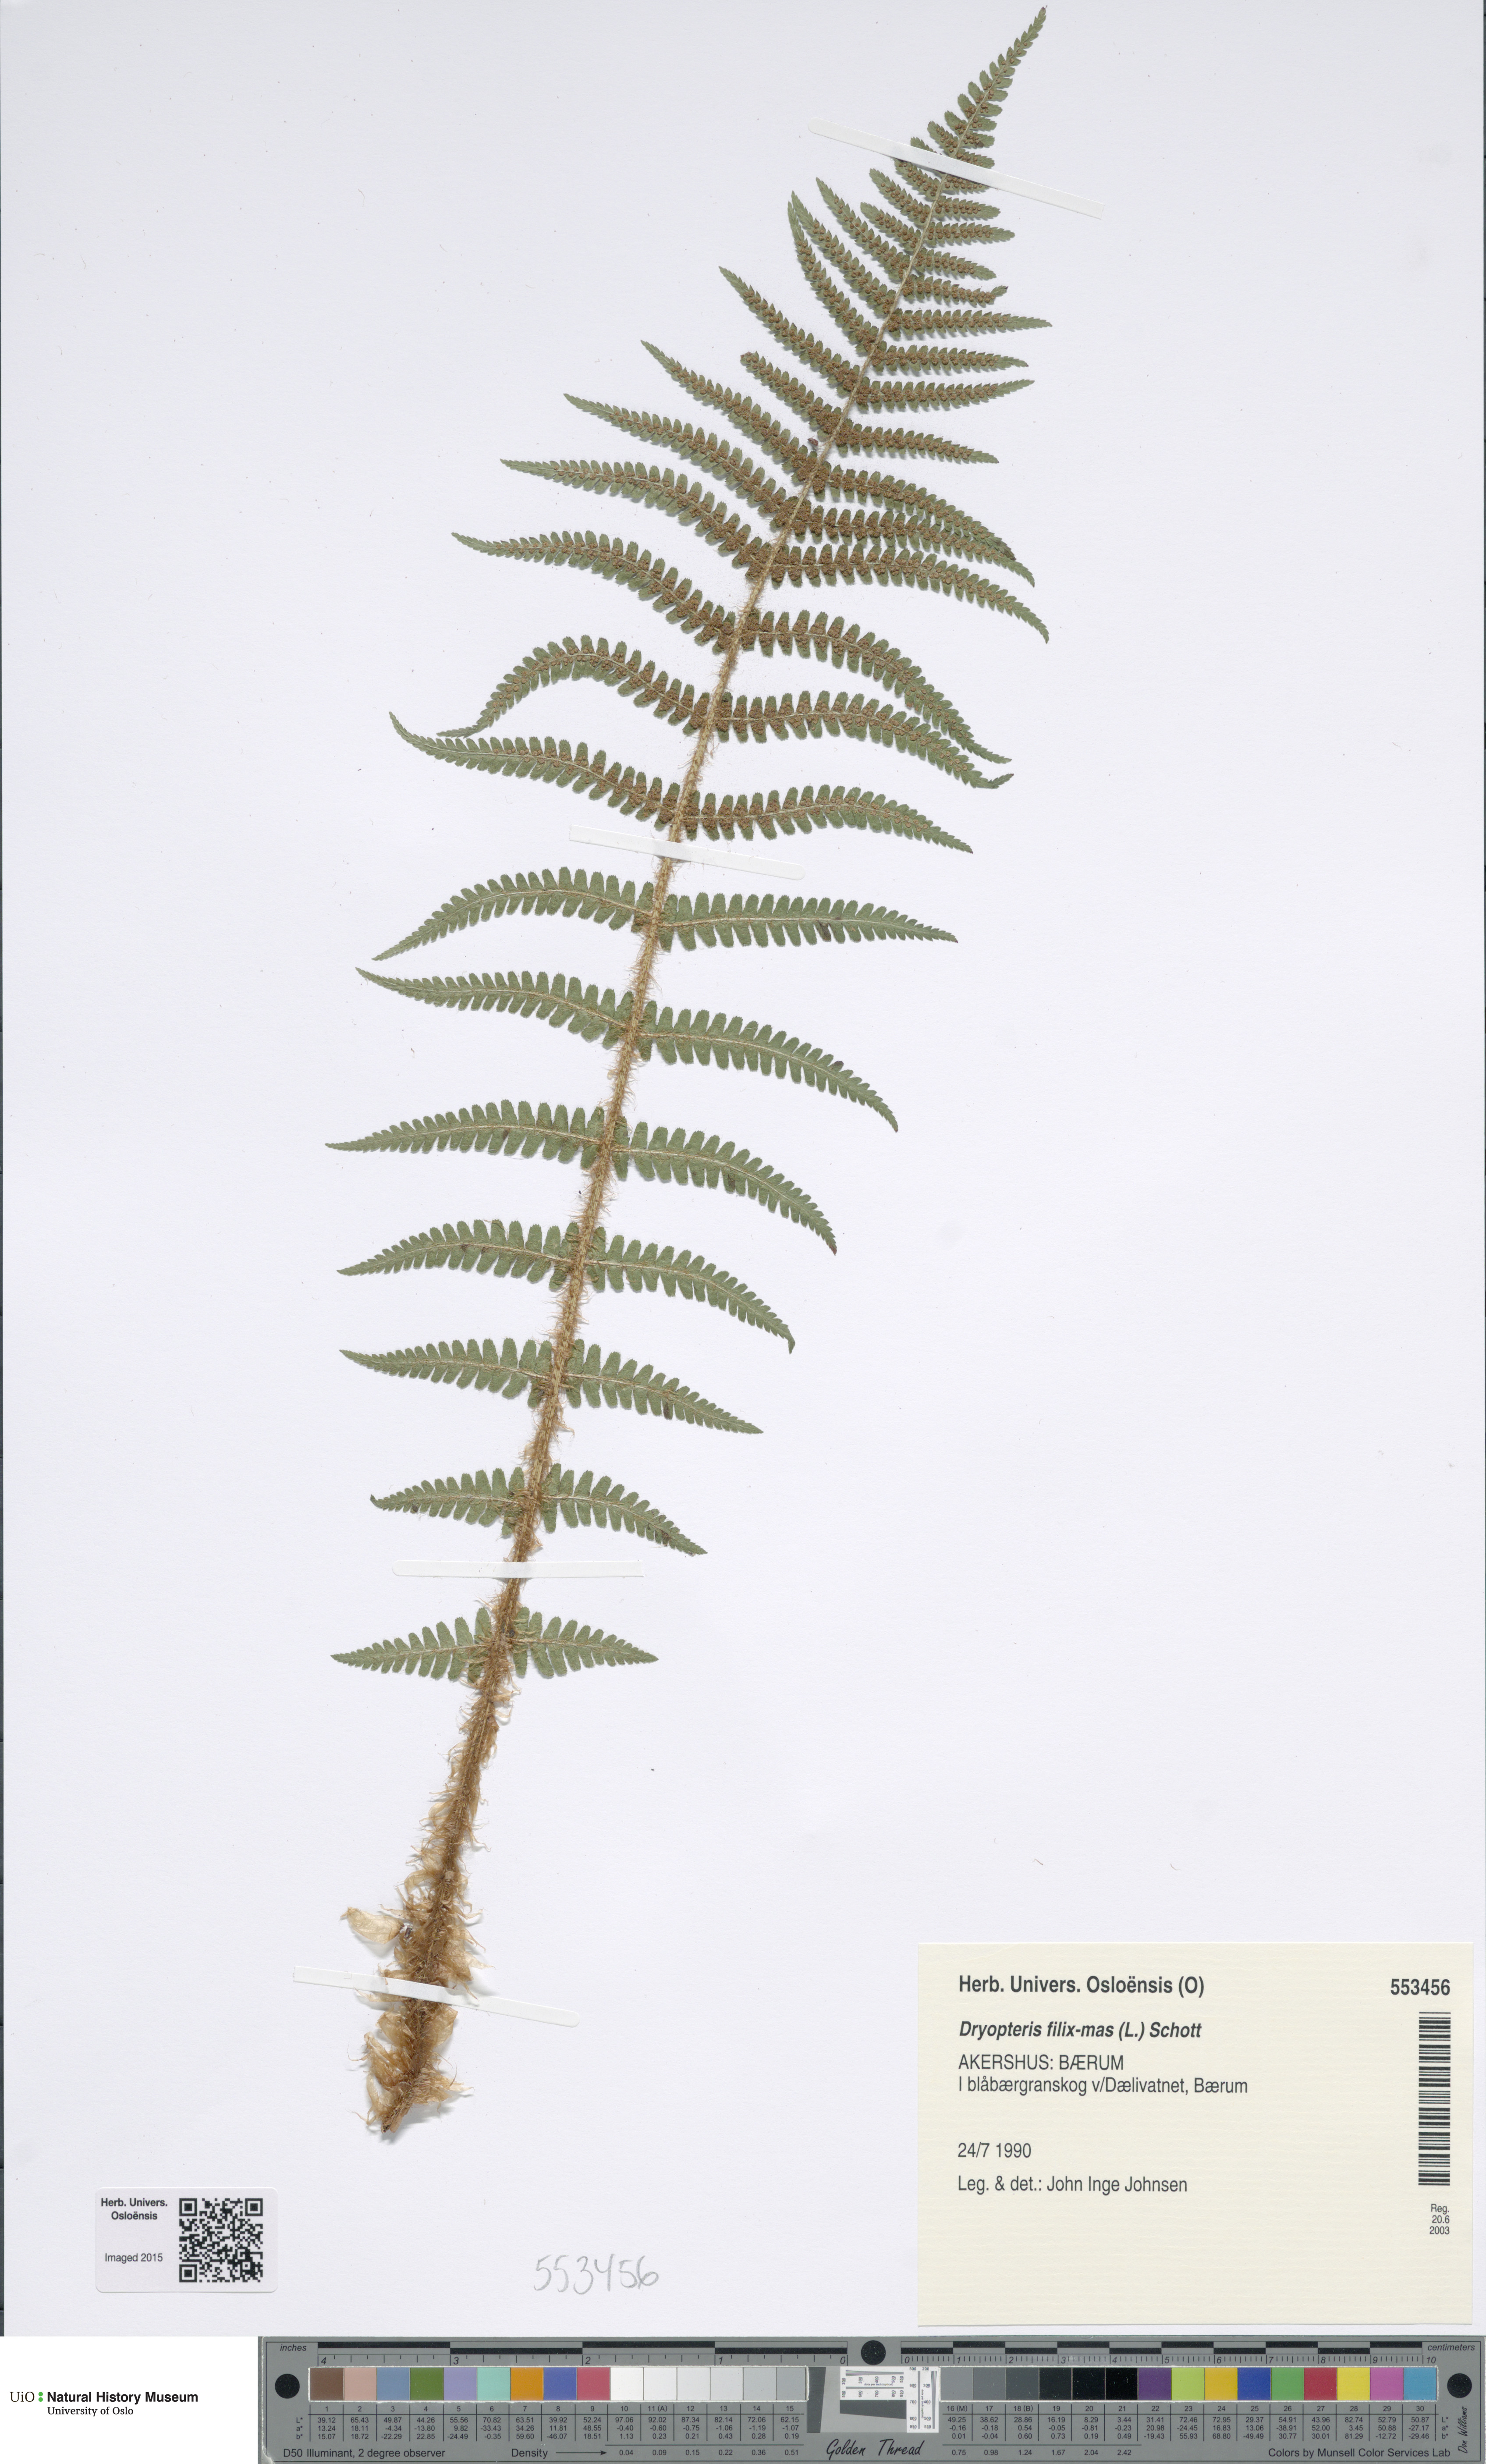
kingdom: Plantae
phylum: Tracheophyta
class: Polypodiopsida
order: Polypodiales
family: Dryopteridaceae
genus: Dryopteris
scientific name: Dryopteris filix-mas
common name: Male fern
